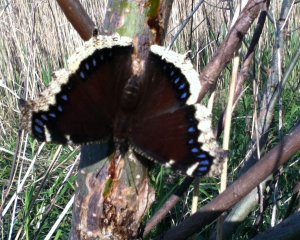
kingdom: Animalia
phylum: Arthropoda
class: Insecta
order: Lepidoptera
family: Nymphalidae
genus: Nymphalis
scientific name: Nymphalis antiopa
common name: Mourning Cloak
